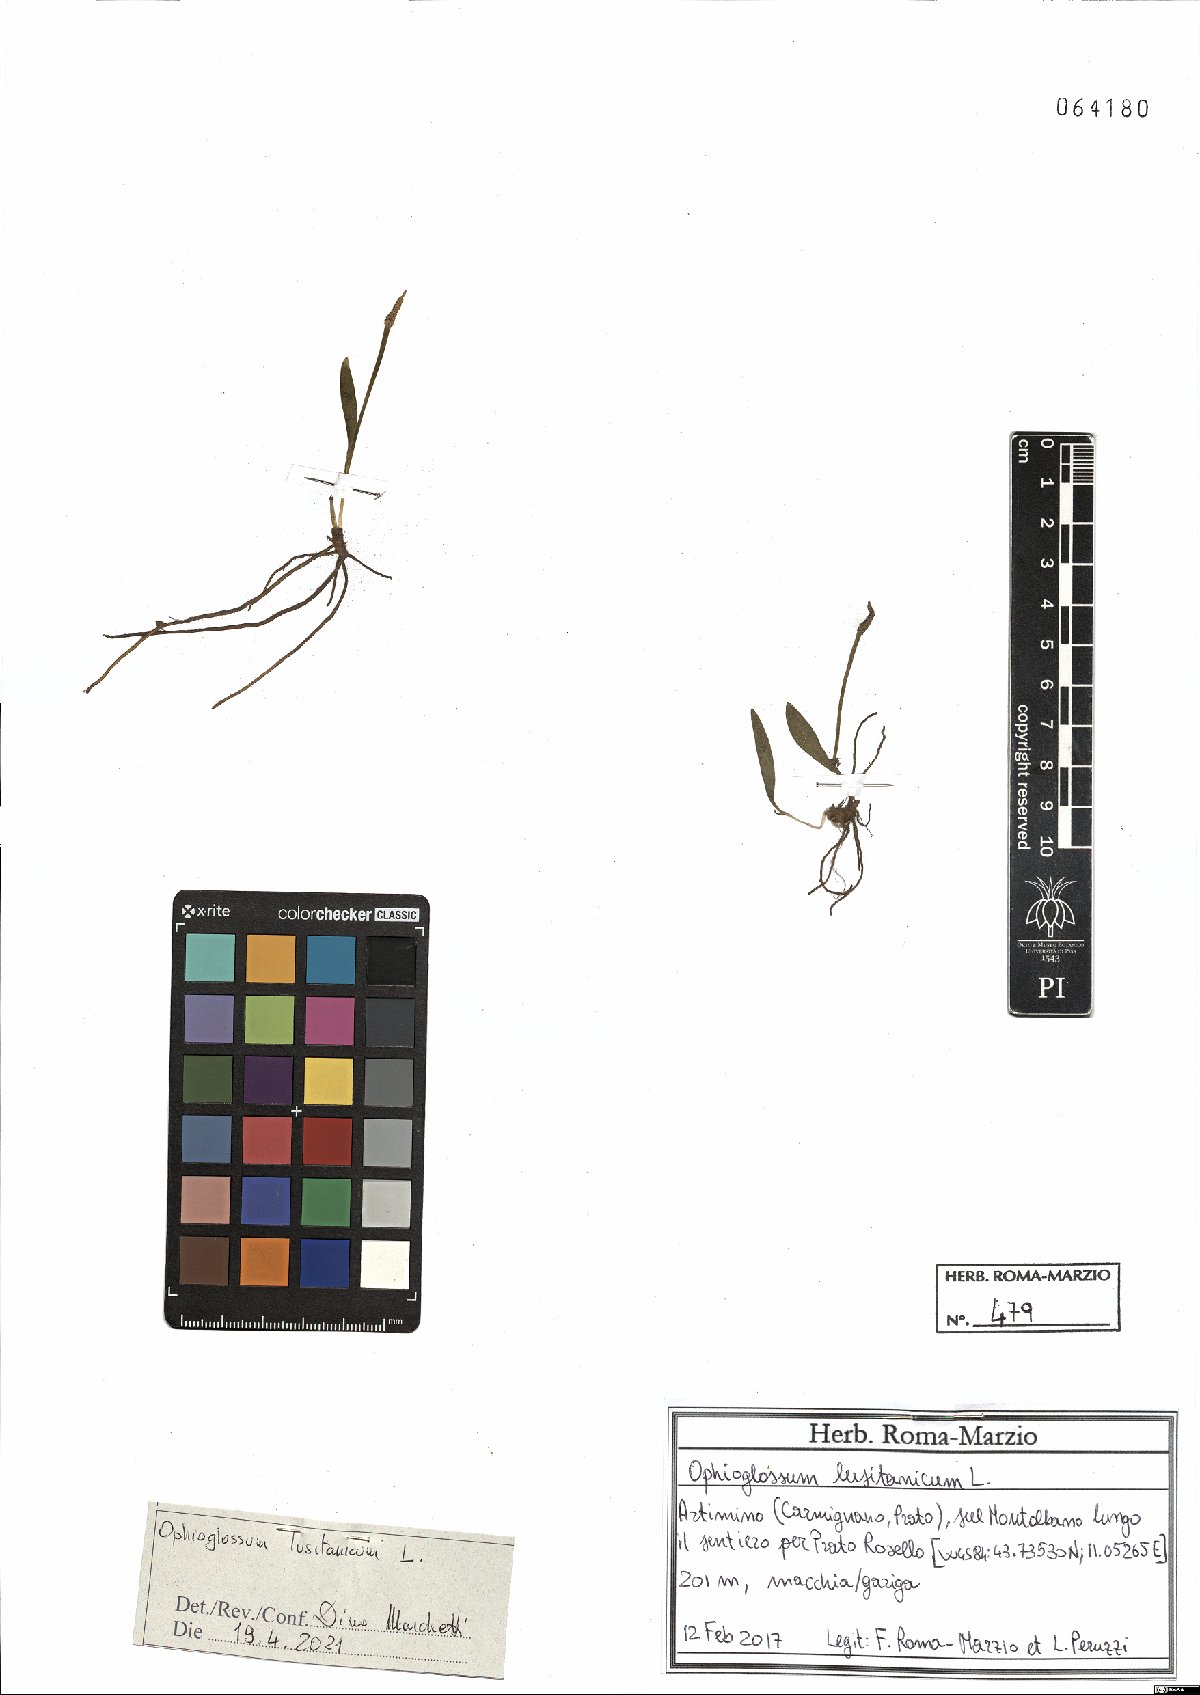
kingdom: Plantae
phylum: Tracheophyta
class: Polypodiopsida
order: Ophioglossales
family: Ophioglossaceae
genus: Ophioglossum
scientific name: Ophioglossum lusitanicum
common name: Least adder's-tongue
